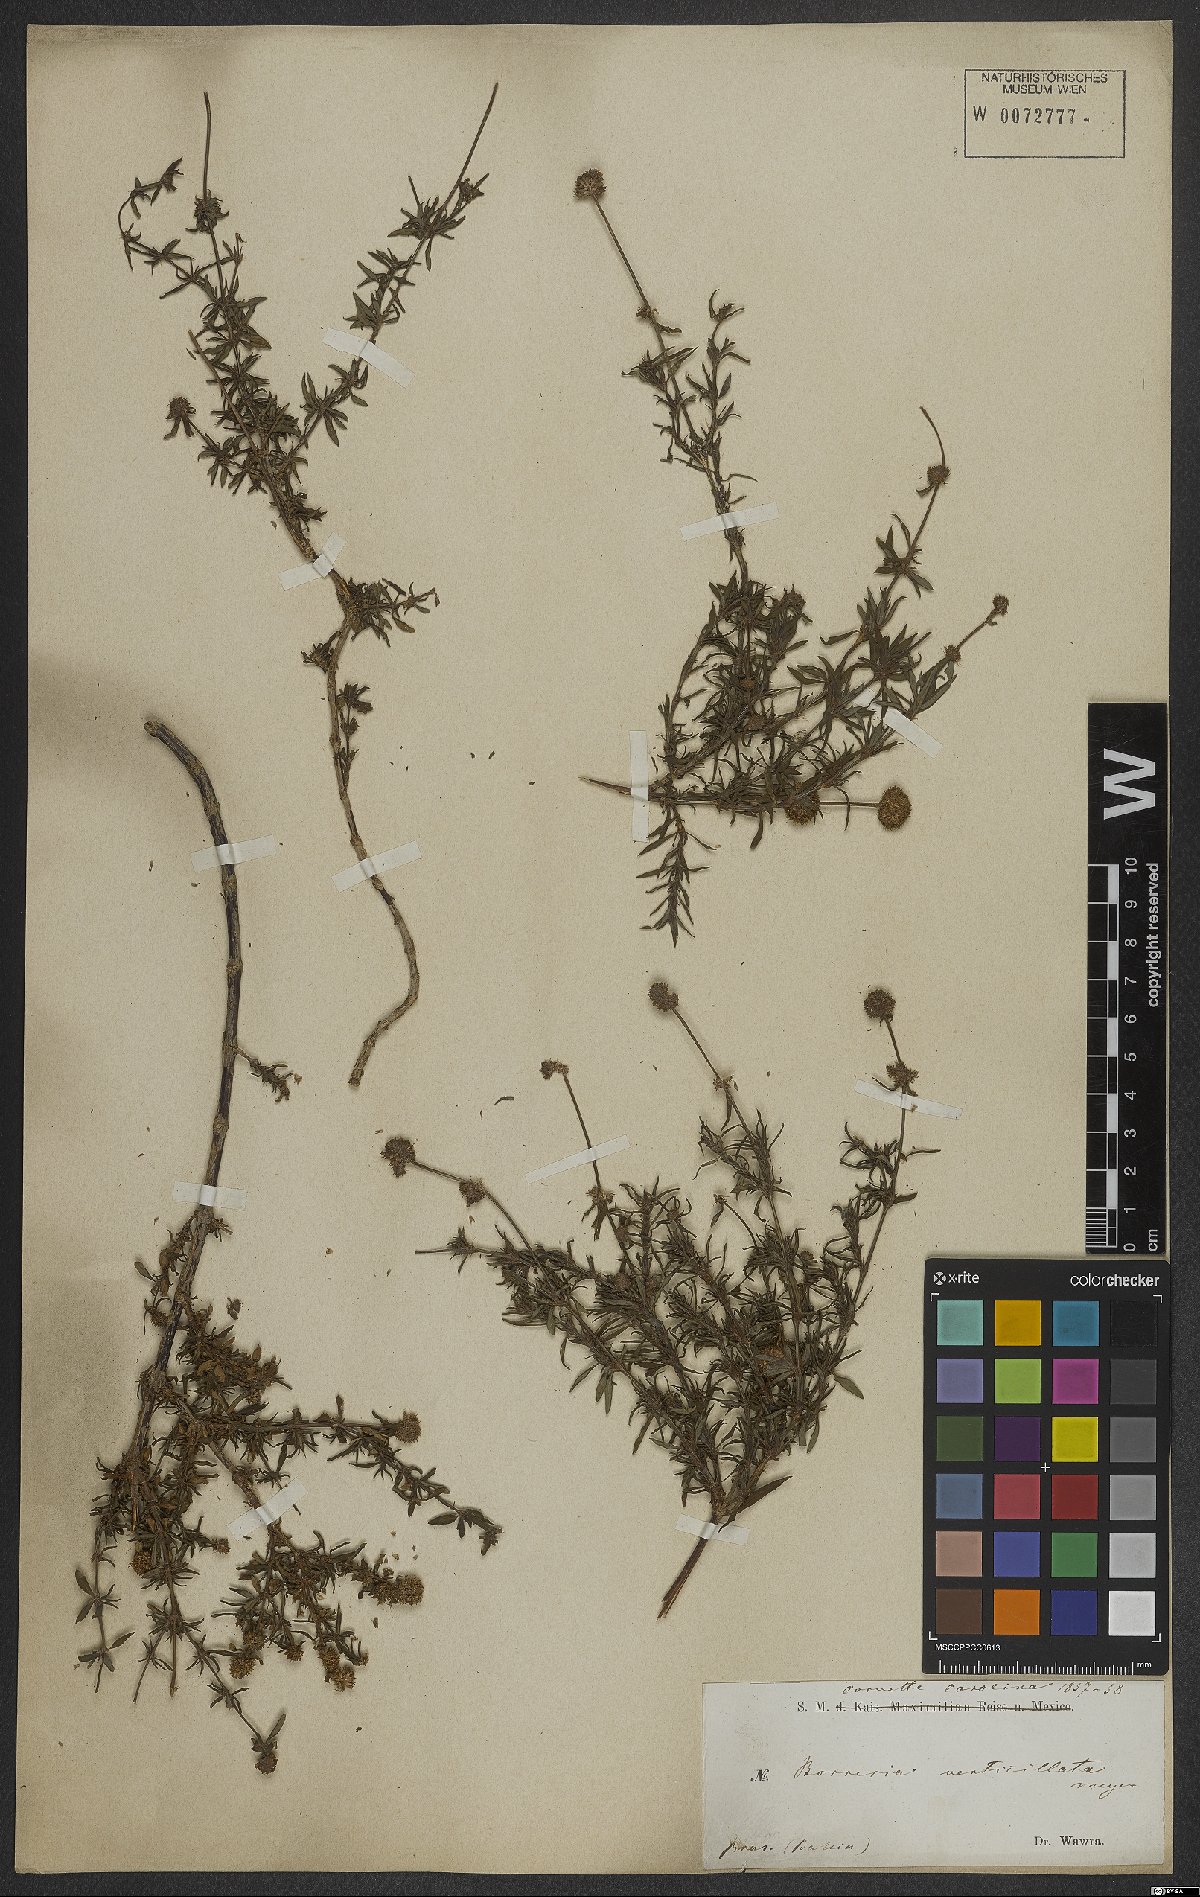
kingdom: Plantae
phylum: Tracheophyta
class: Magnoliopsida
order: Gentianales
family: Rubiaceae
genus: Spermacoce
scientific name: Spermacoce verticillata
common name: Shrubby false buttonweed
